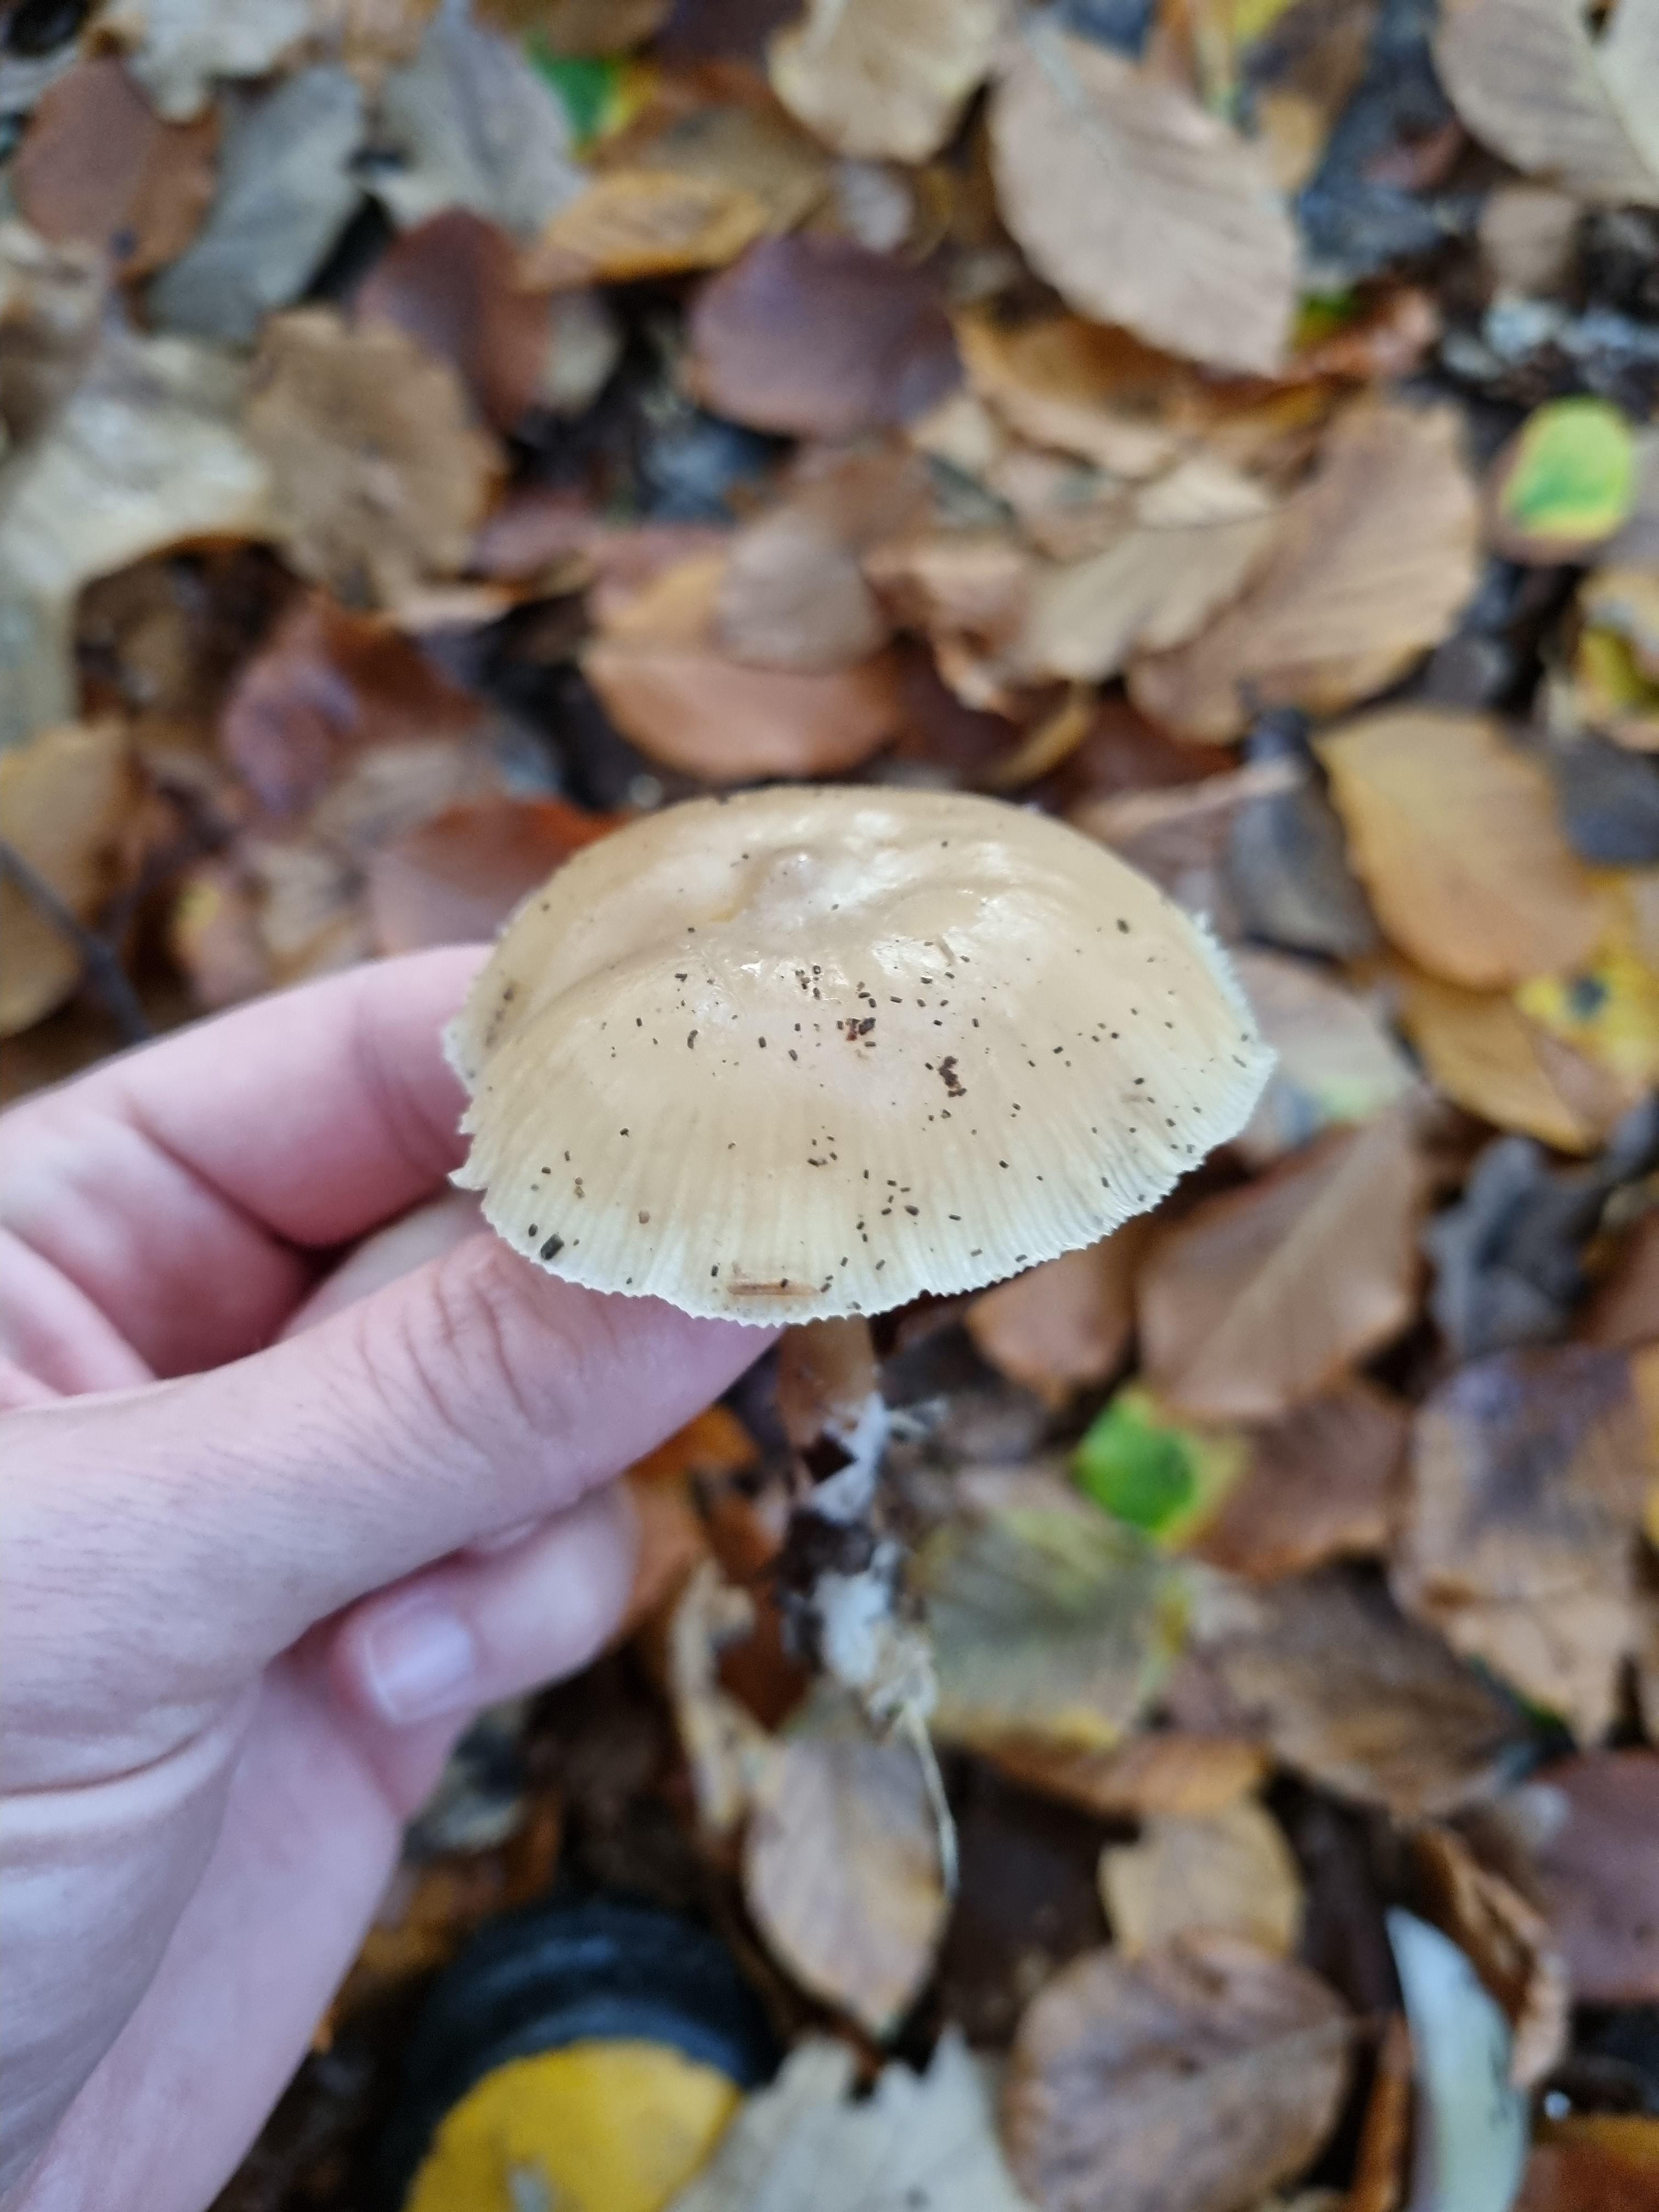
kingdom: Fungi
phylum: Basidiomycota
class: Agaricomycetes
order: Agaricales
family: Omphalotaceae
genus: Rhodocollybia
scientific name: Rhodocollybia asema
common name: horngrå fladhat
